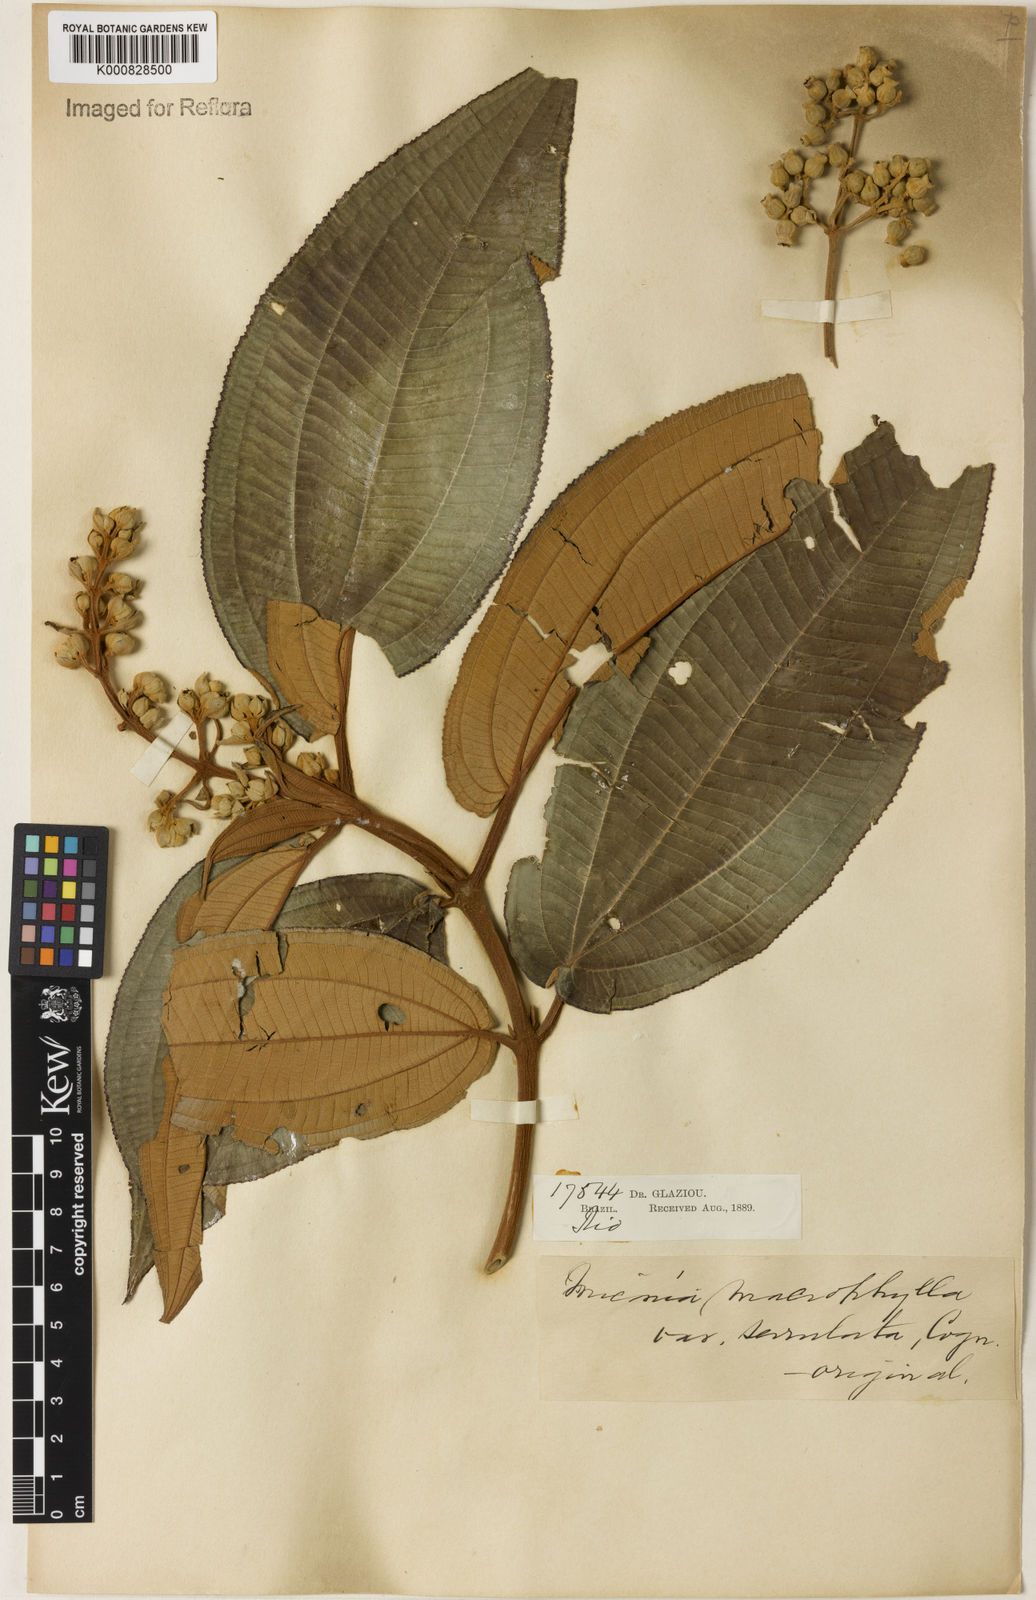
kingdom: Plantae
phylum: Tracheophyta
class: Magnoliopsida
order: Myrtales
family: Melastomataceae
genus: Miconia
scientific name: Miconia serrulata
